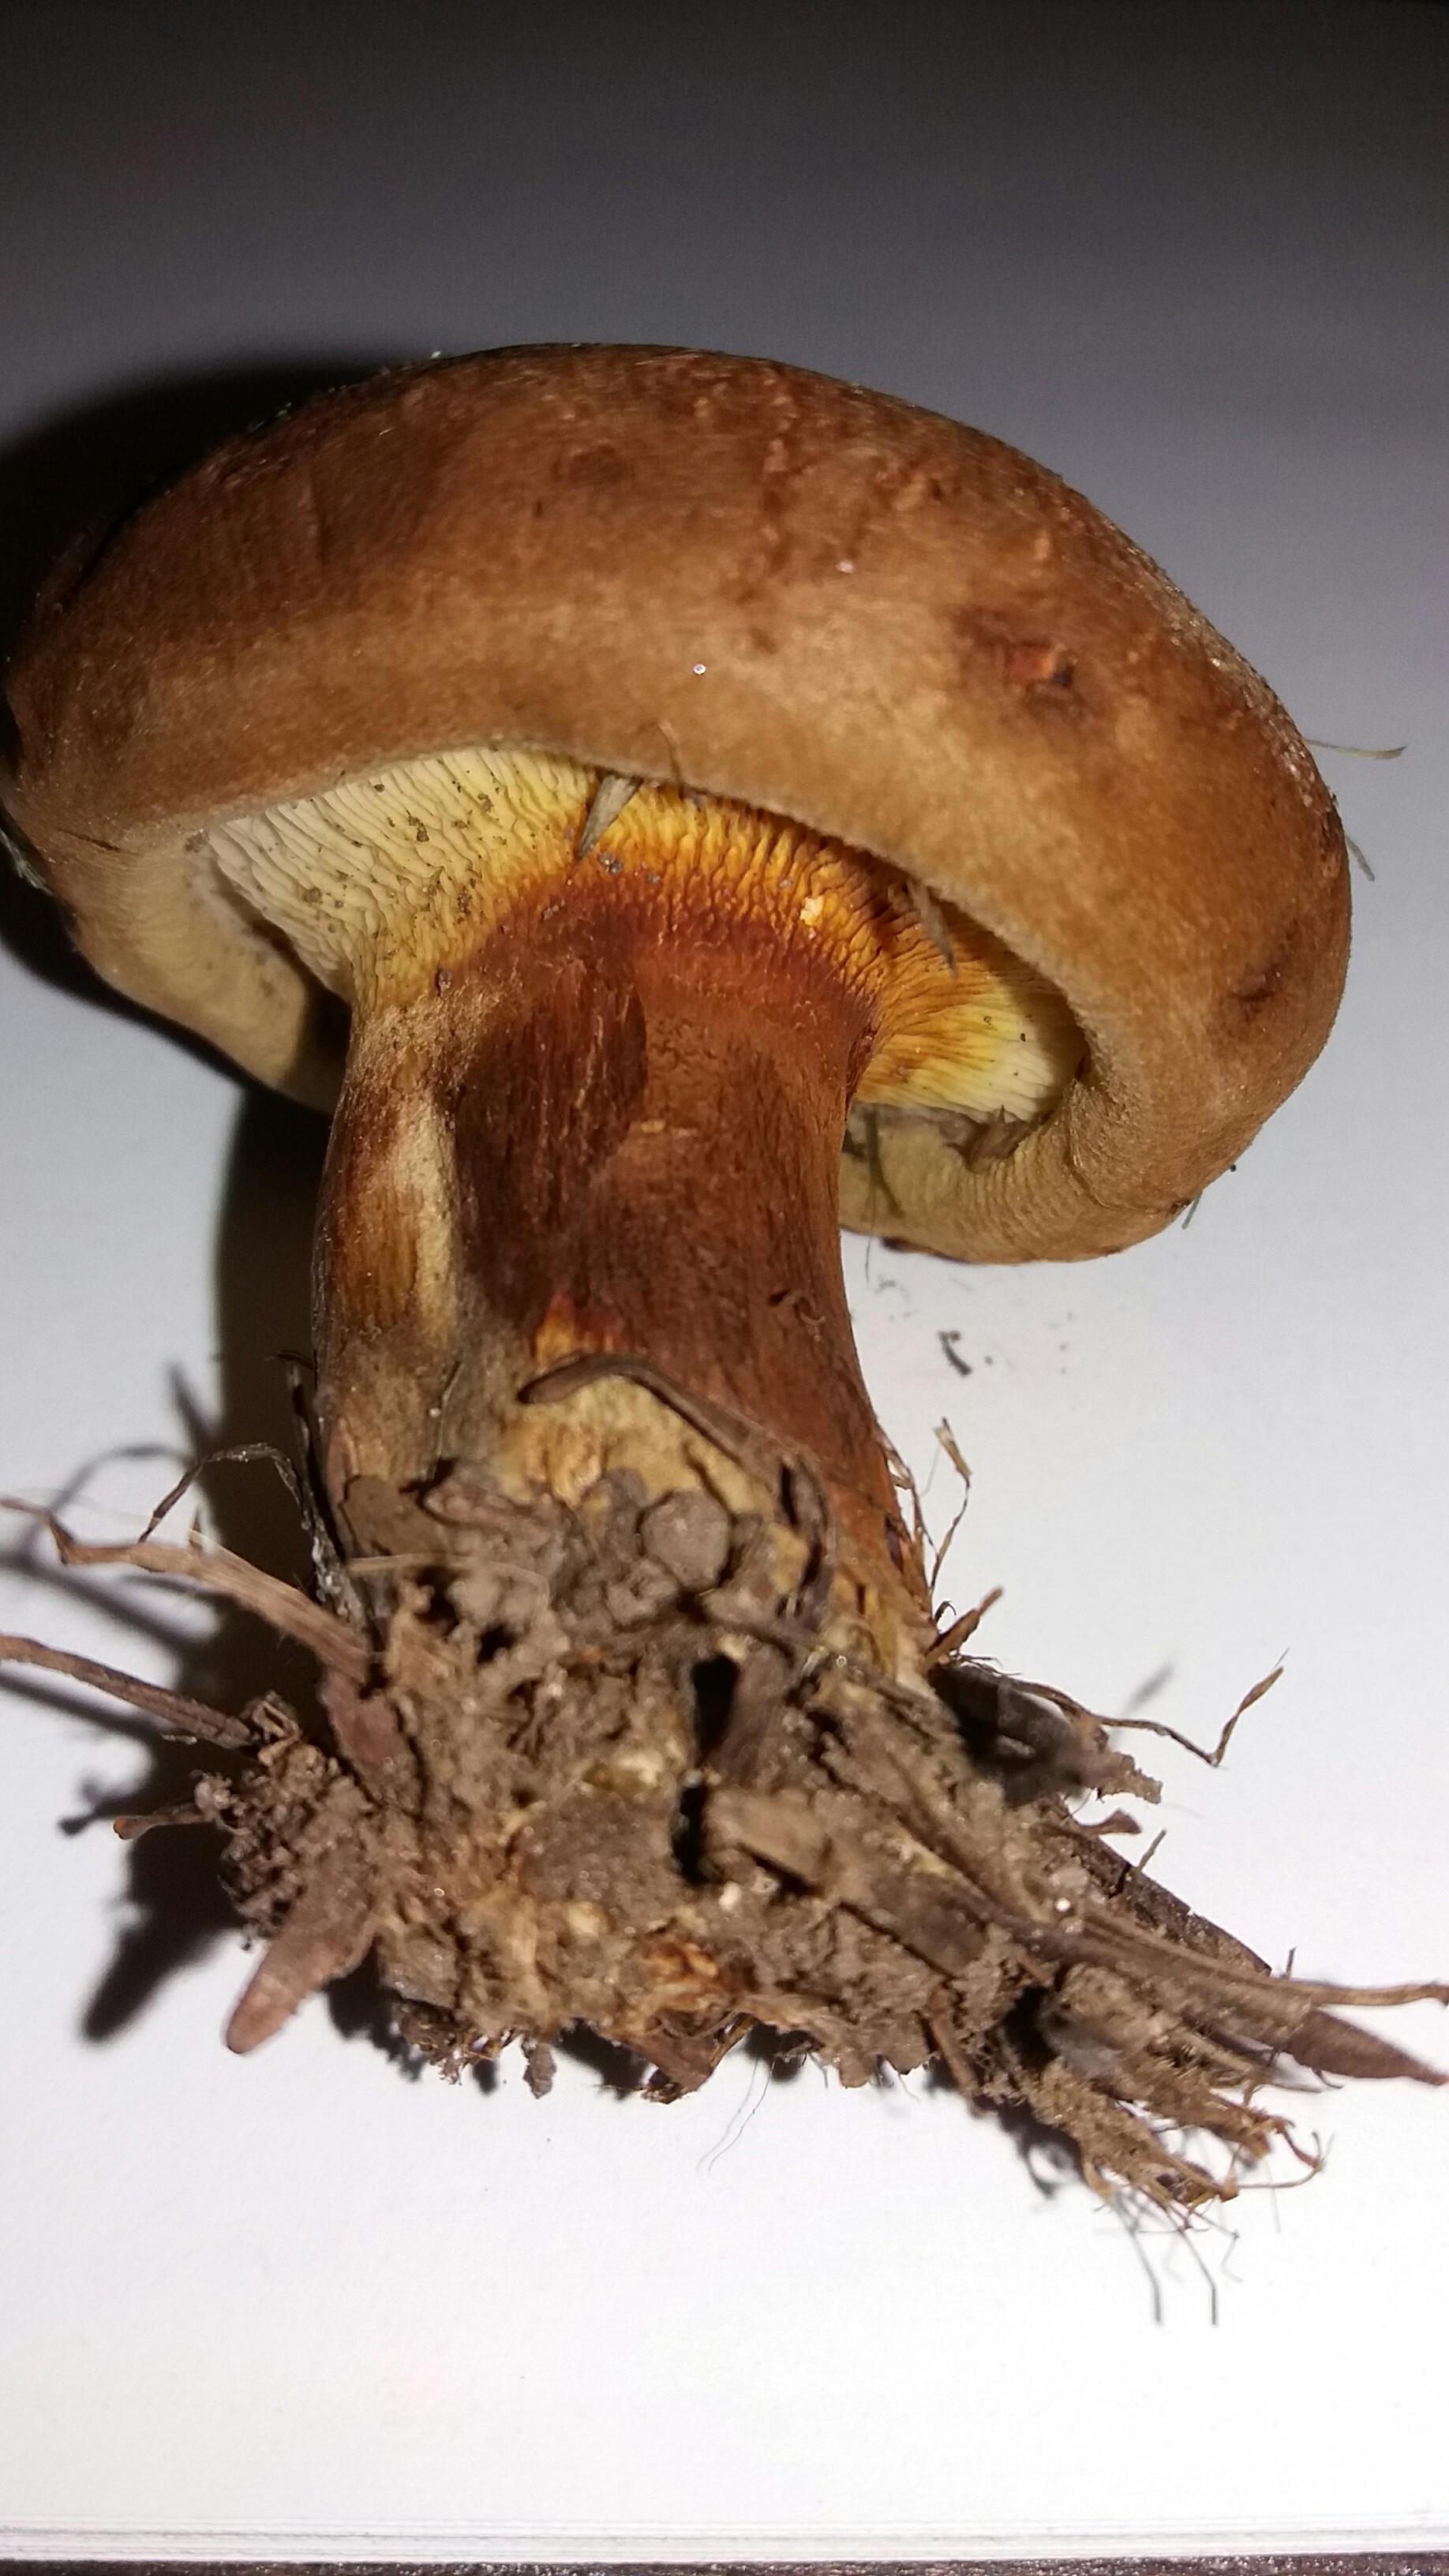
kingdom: Fungi
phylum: Basidiomycota
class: Agaricomycetes
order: Boletales
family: Paxillaceae
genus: Paxillus
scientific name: Paxillus involutus
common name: almindelig netbladhat
